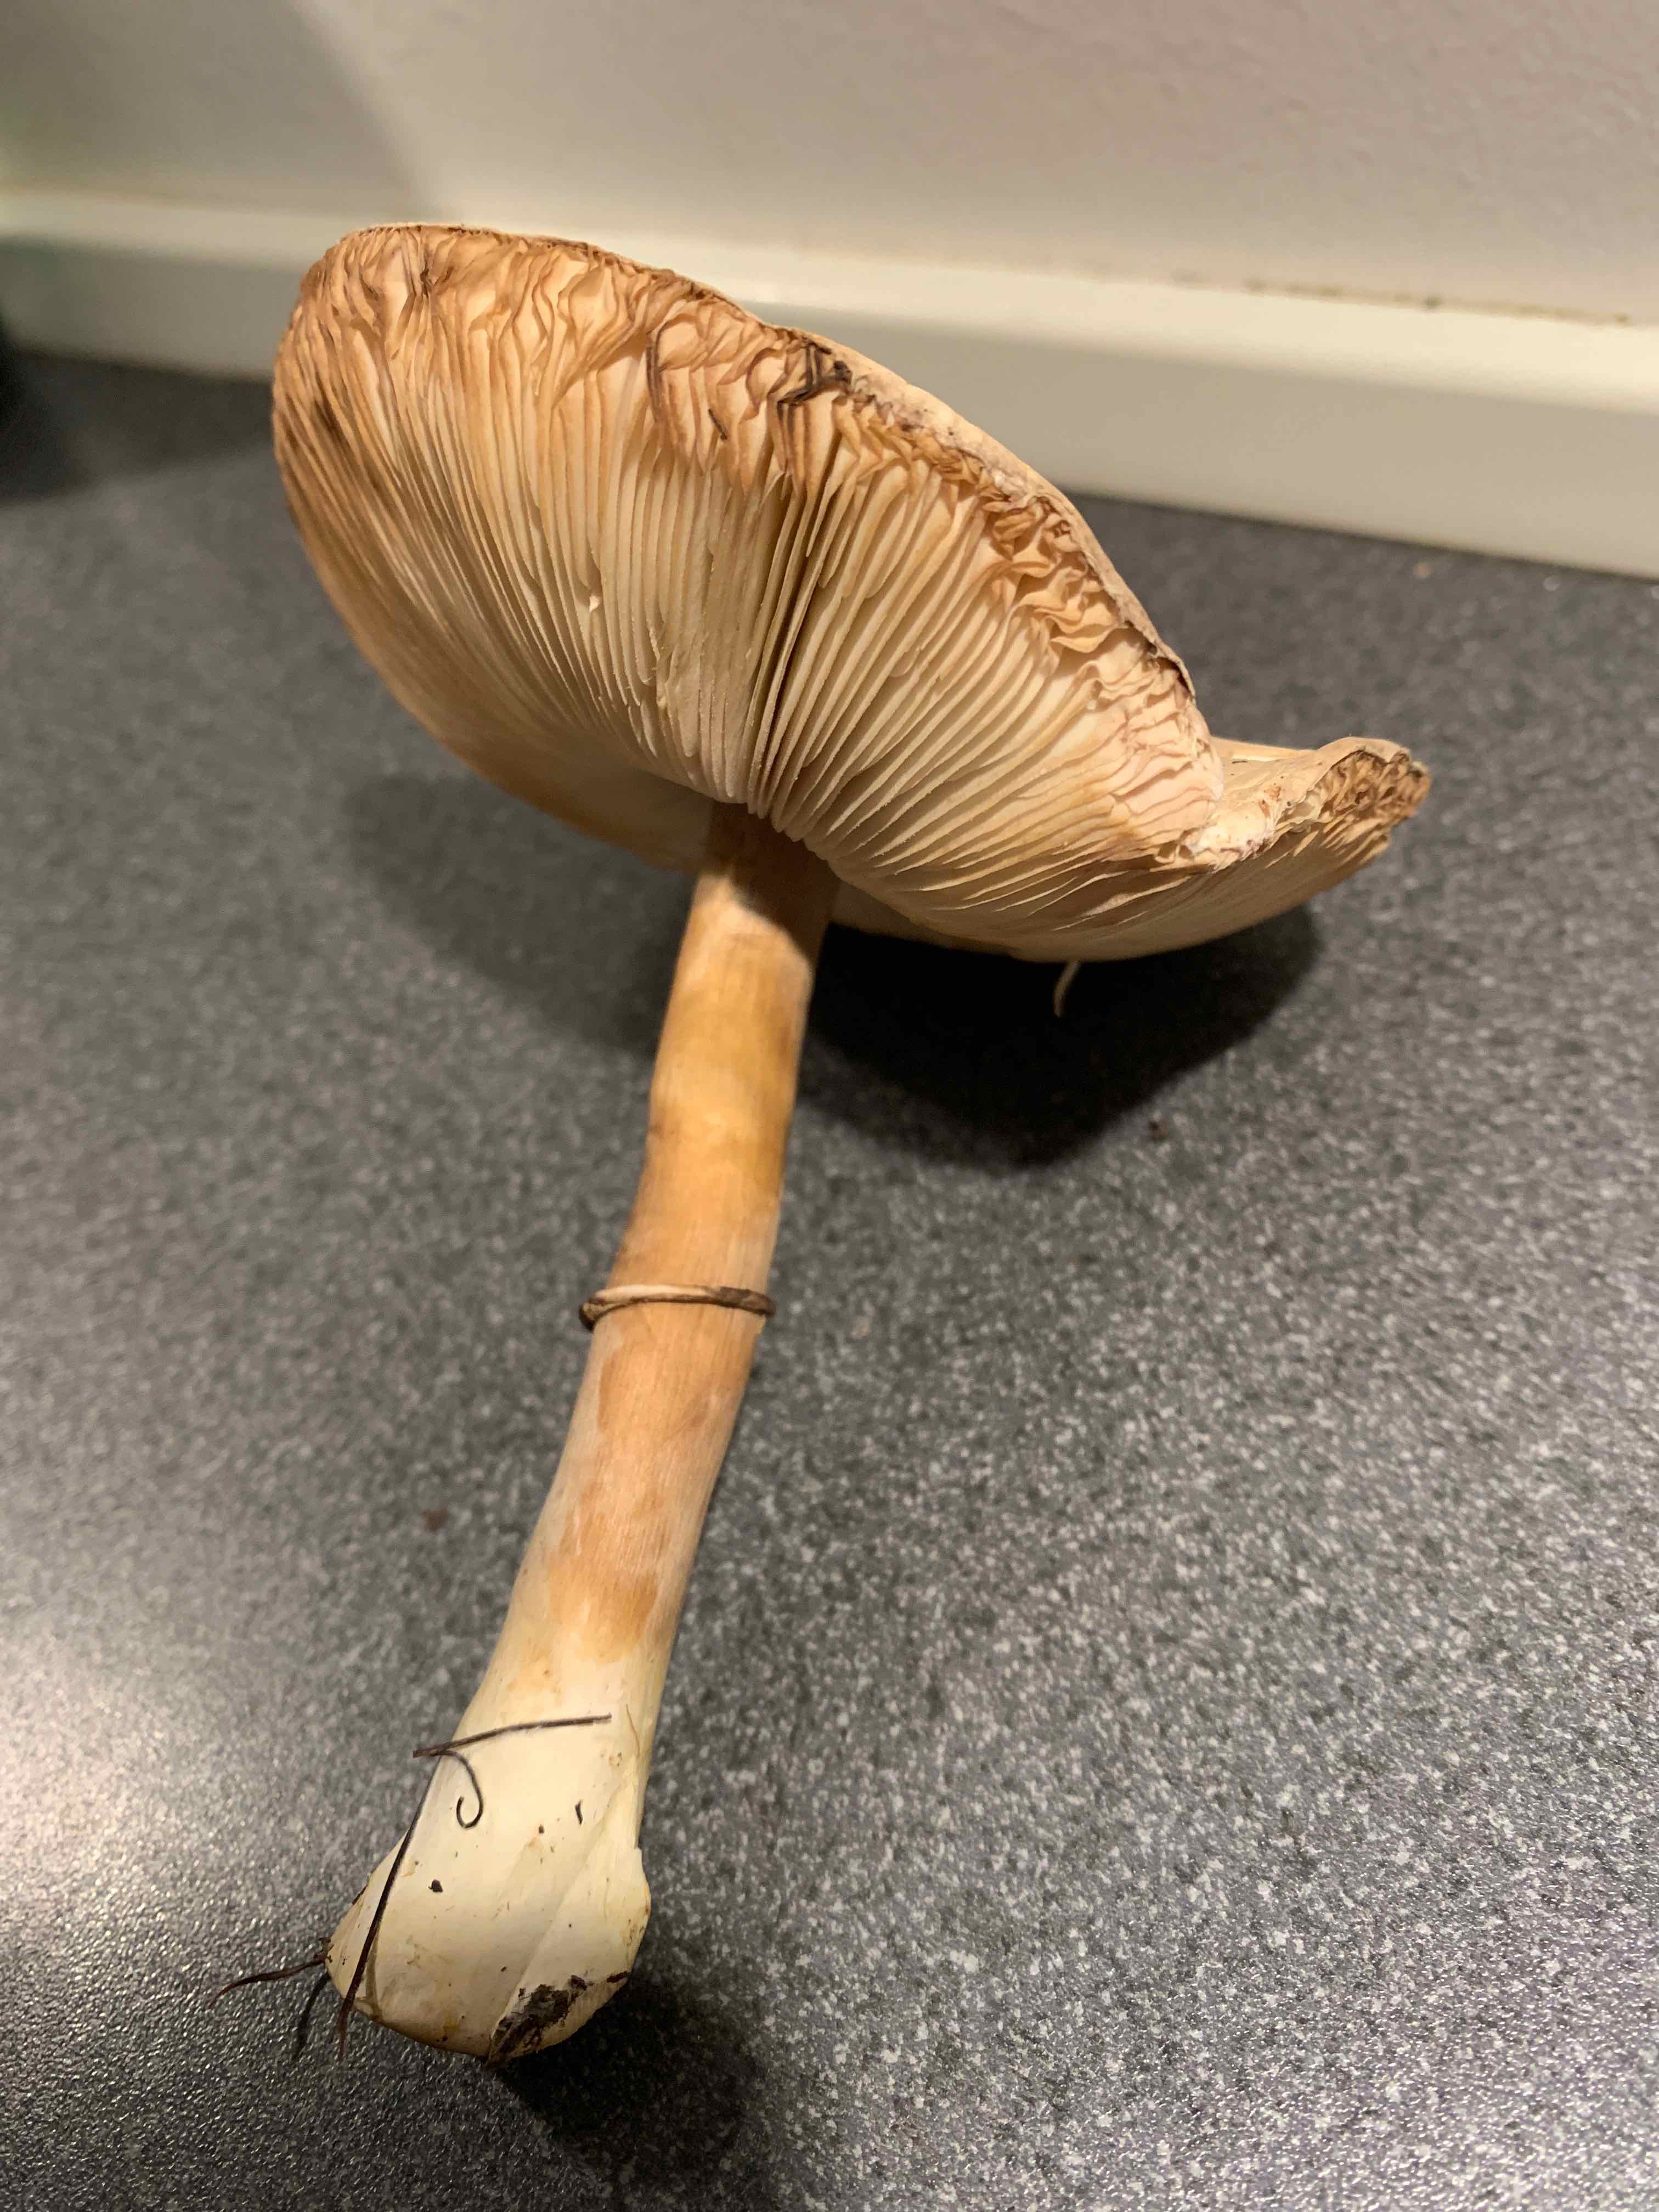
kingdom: Fungi
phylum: Basidiomycota
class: Agaricomycetes
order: Agaricales
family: Agaricaceae
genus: Leucoagaricus
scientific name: Leucoagaricus leucothites
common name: rosabladet silkehat
